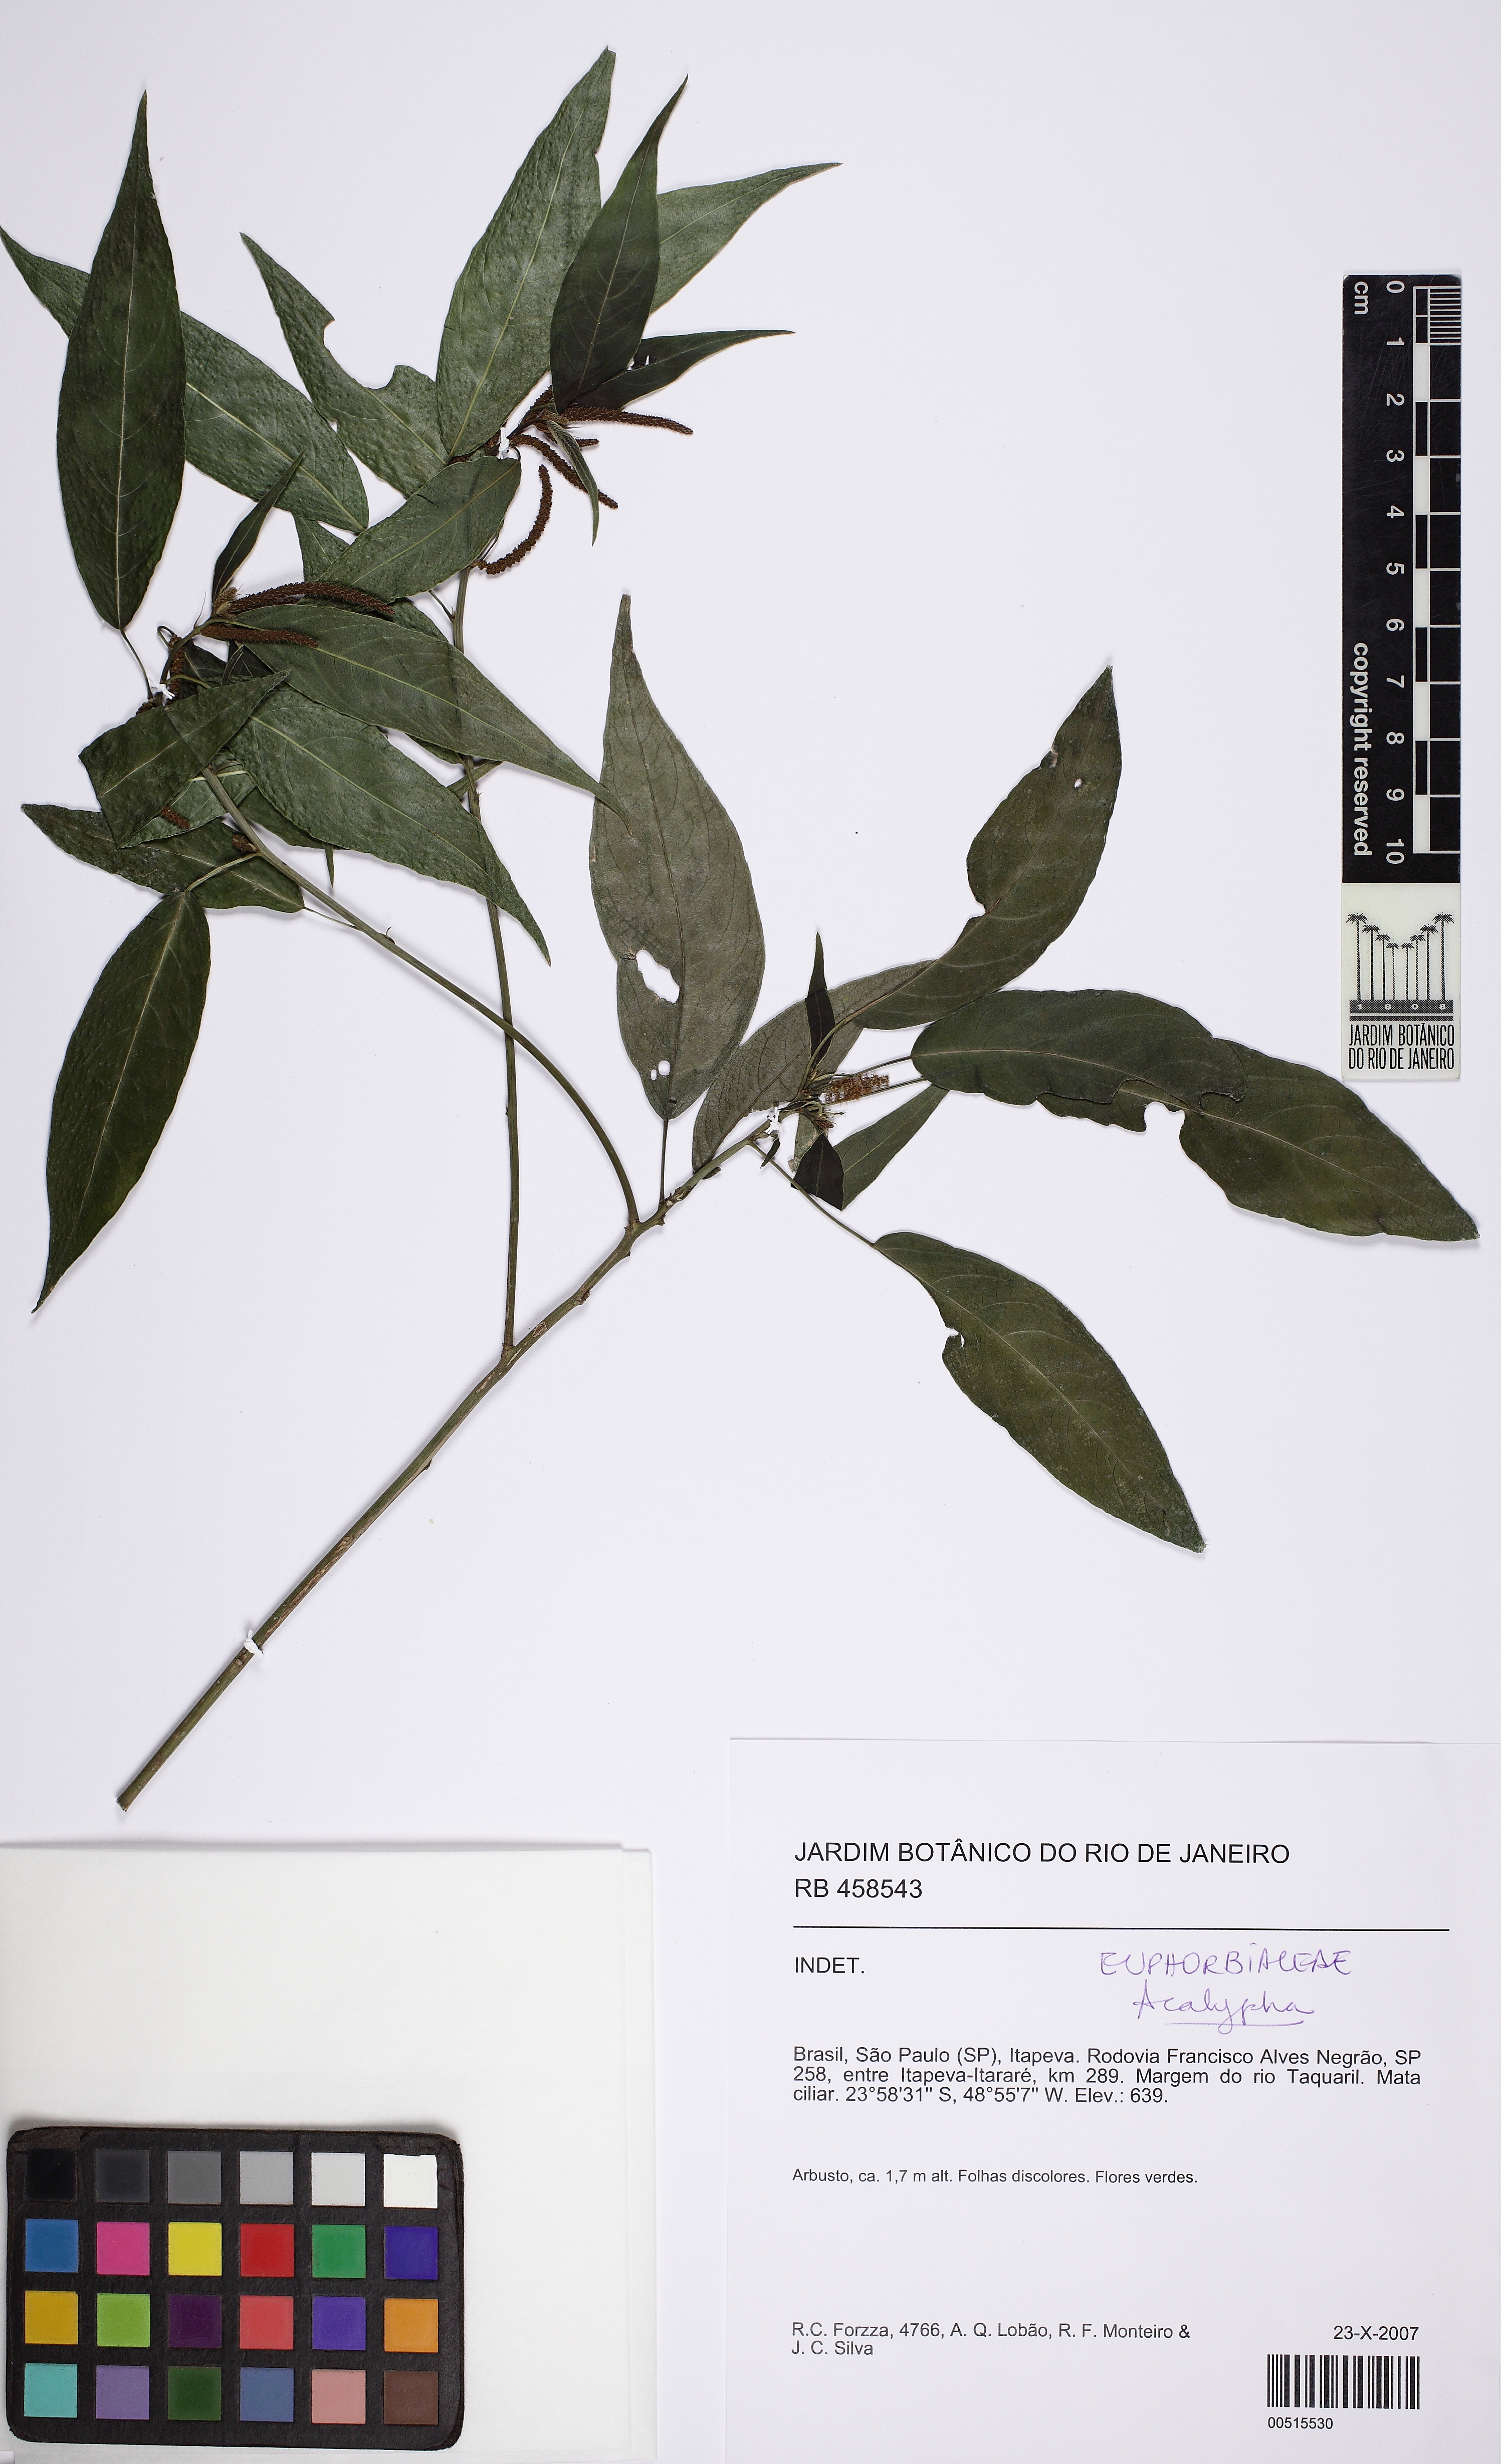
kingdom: Plantae
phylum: Tracheophyta
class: Magnoliopsida
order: Malpighiales
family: Euphorbiaceae
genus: Acalypha
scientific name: Acalypha digynostachya
